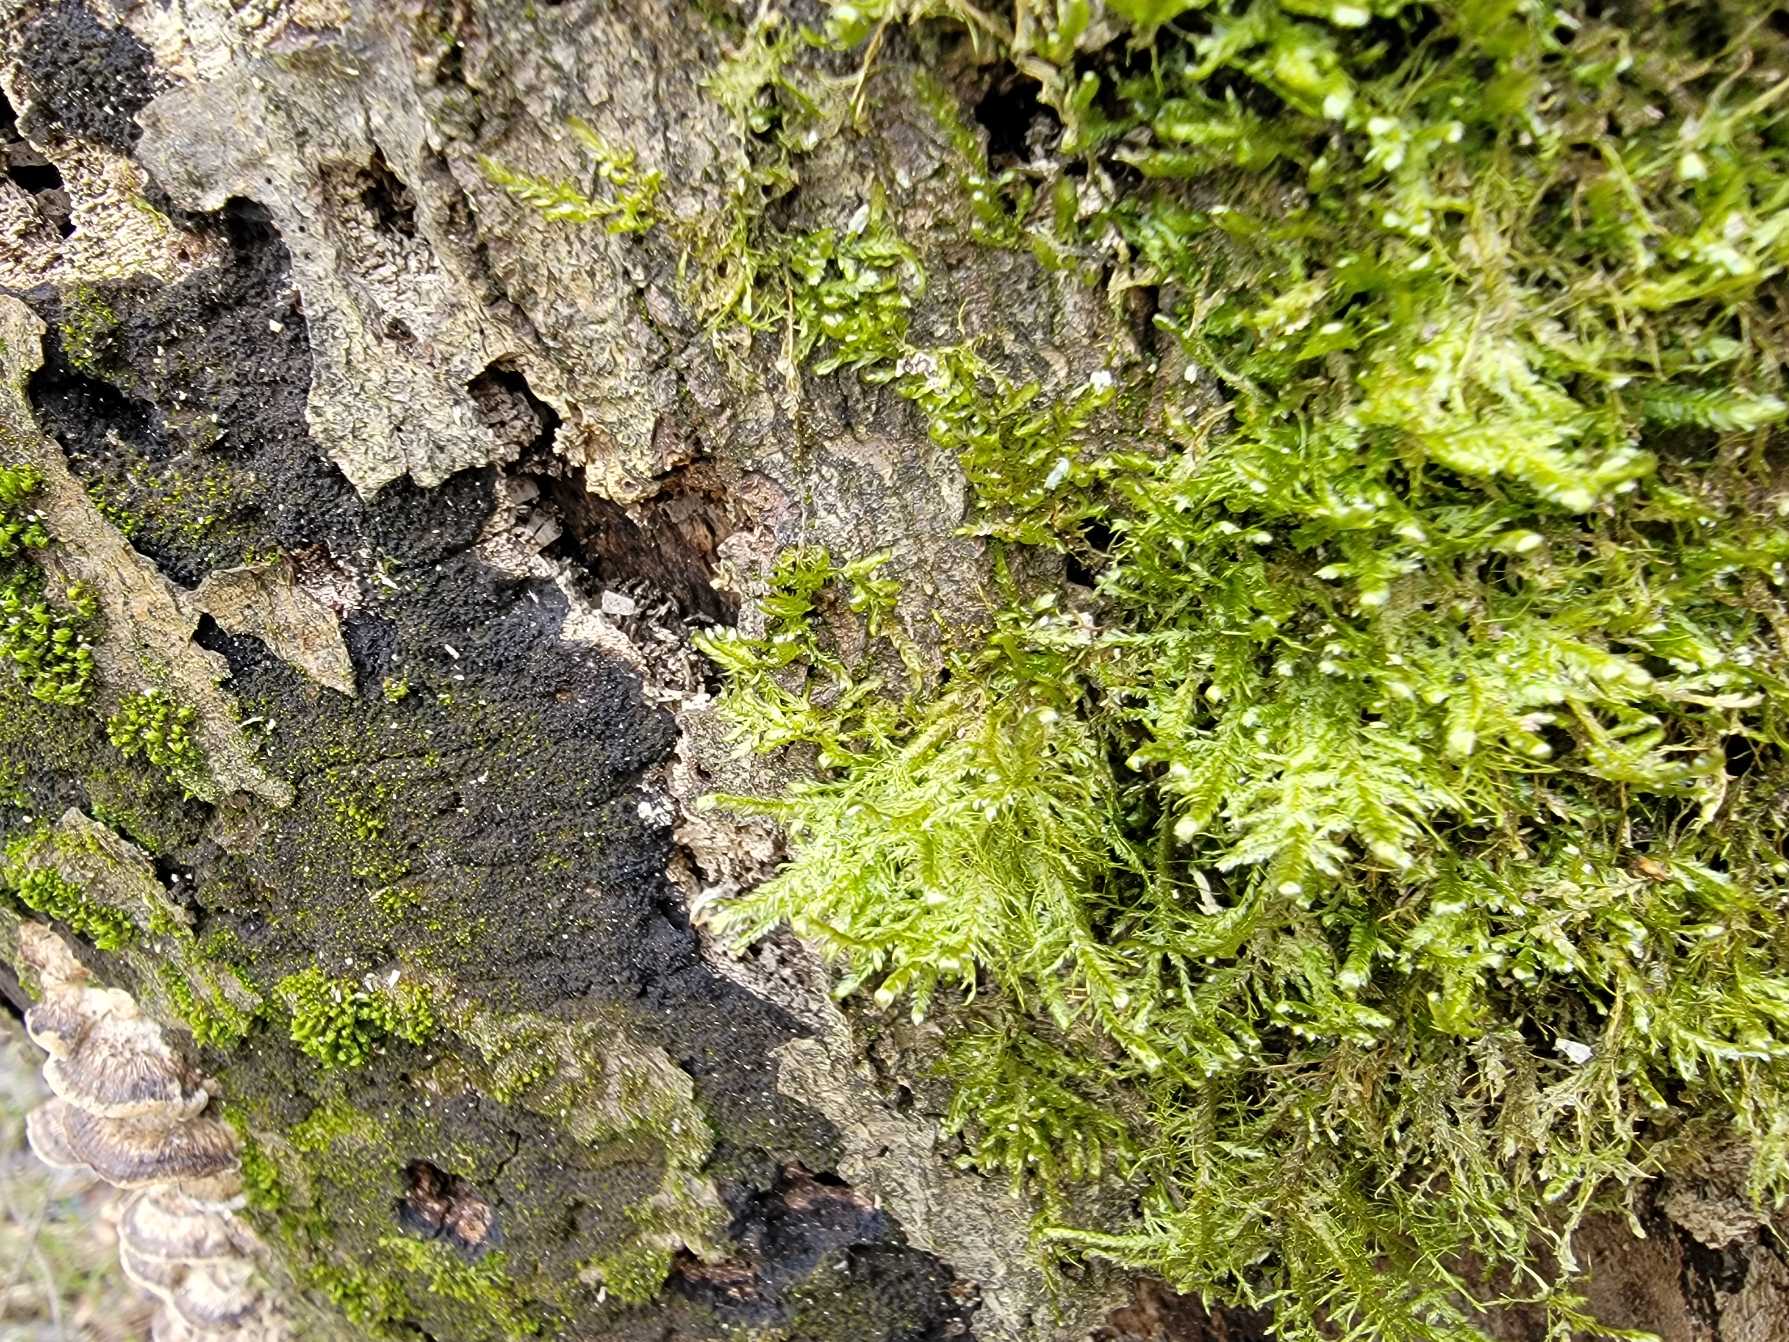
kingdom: Plantae
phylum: Bryophyta
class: Bryopsida
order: Hypnales
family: Neckeraceae
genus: Alleniella
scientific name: Alleniella complanata
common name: Almindelig fladmos
